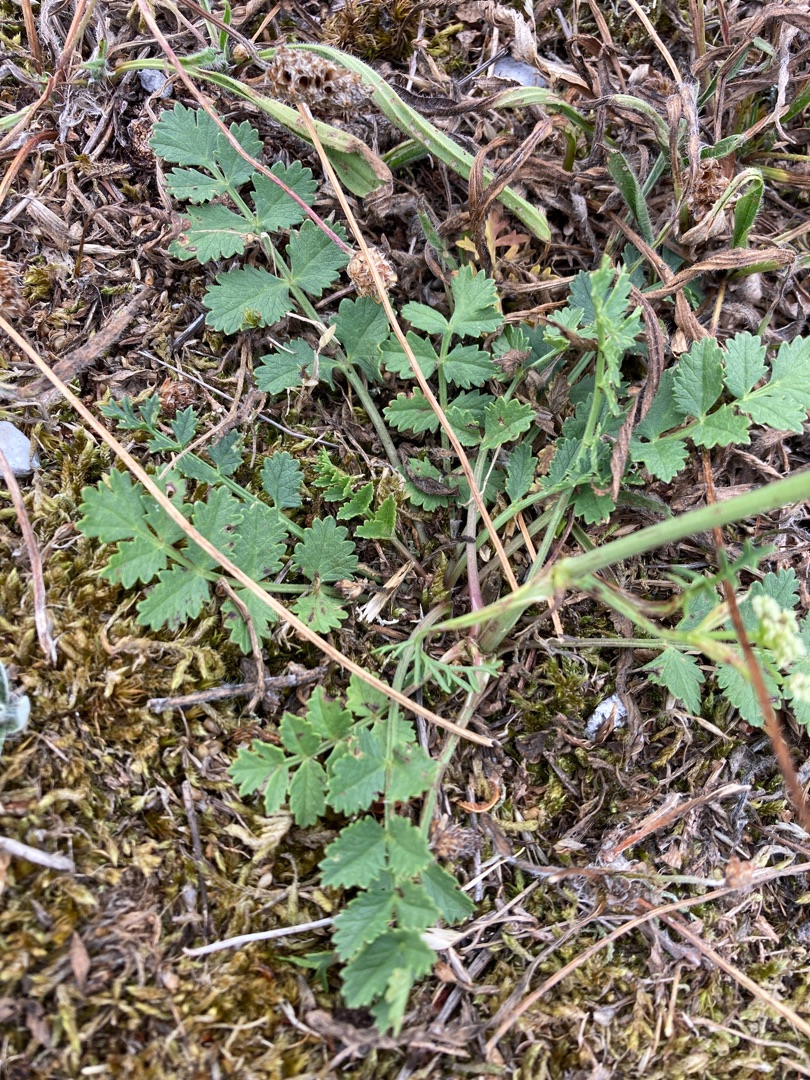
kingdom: Plantae
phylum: Tracheophyta
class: Magnoliopsida
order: Apiales
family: Apiaceae
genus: Pimpinella
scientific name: Pimpinella saxifraga
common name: Almindelig pimpinelle
